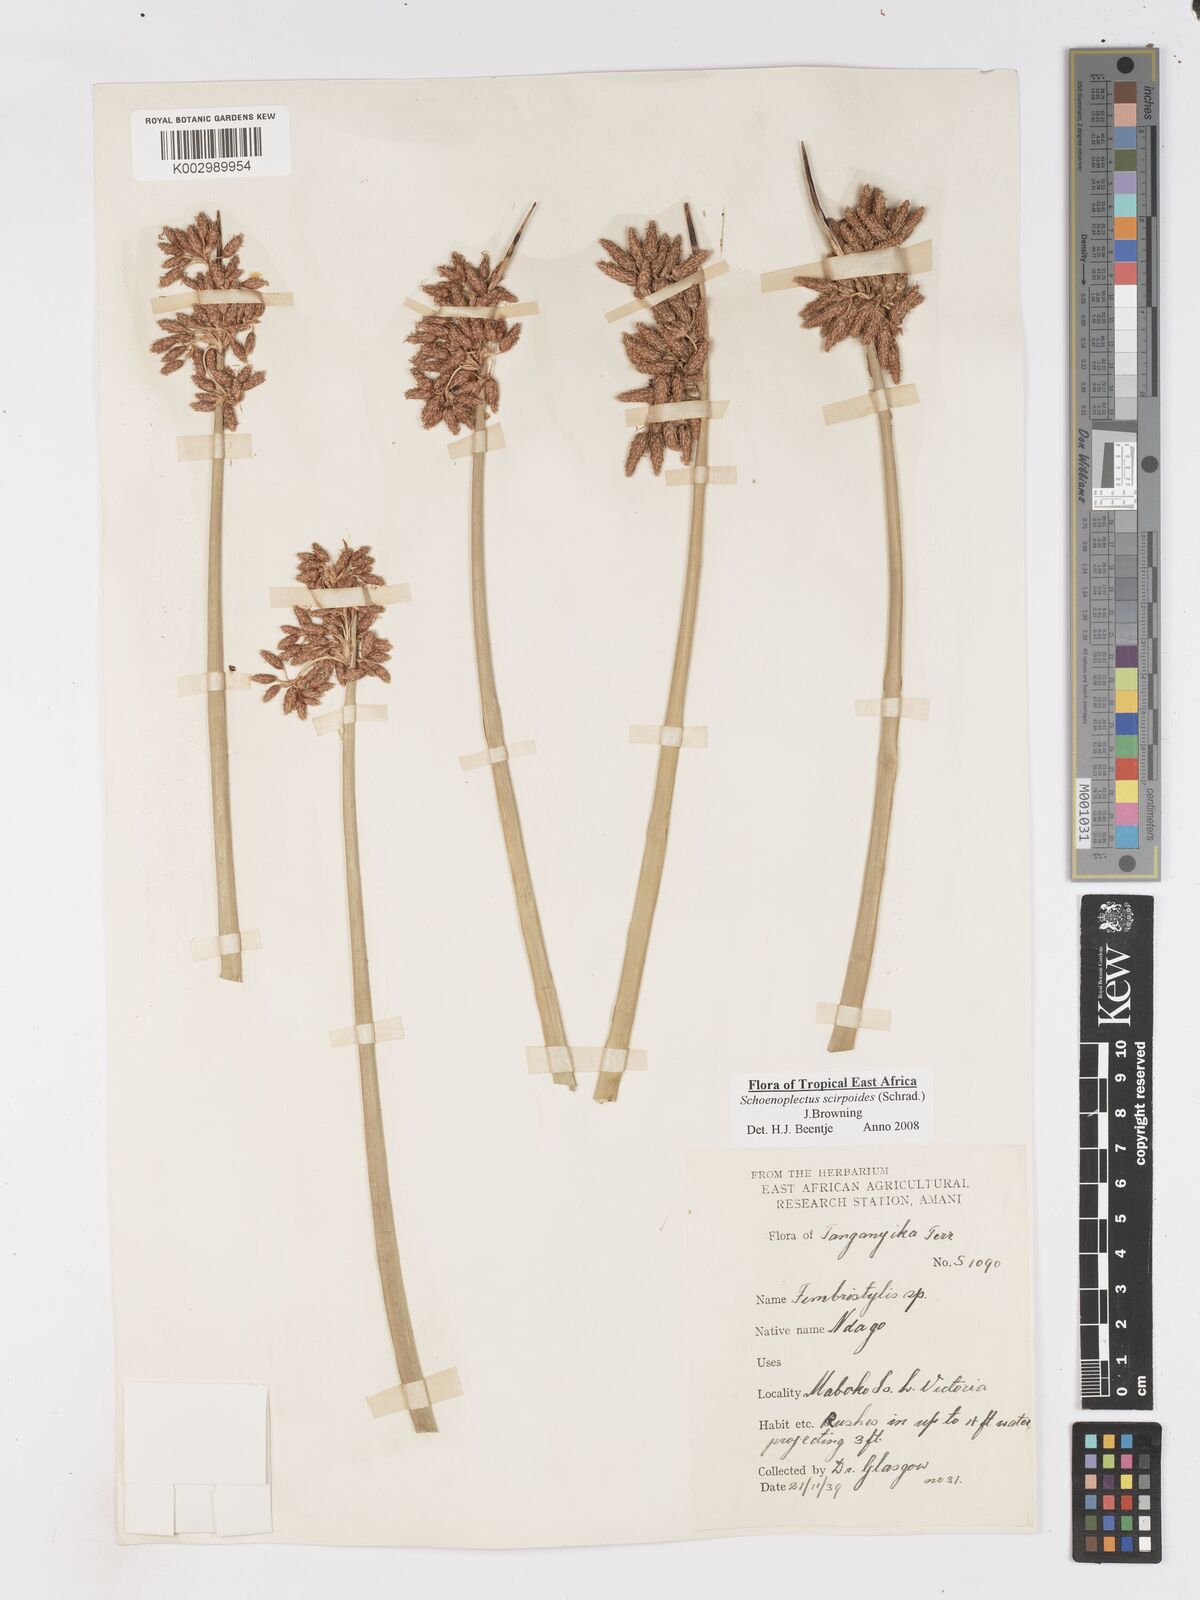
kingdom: Plantae
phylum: Tracheophyta
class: Liliopsida
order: Poales
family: Cyperaceae
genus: Schoenoplectus
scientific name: Schoenoplectus
